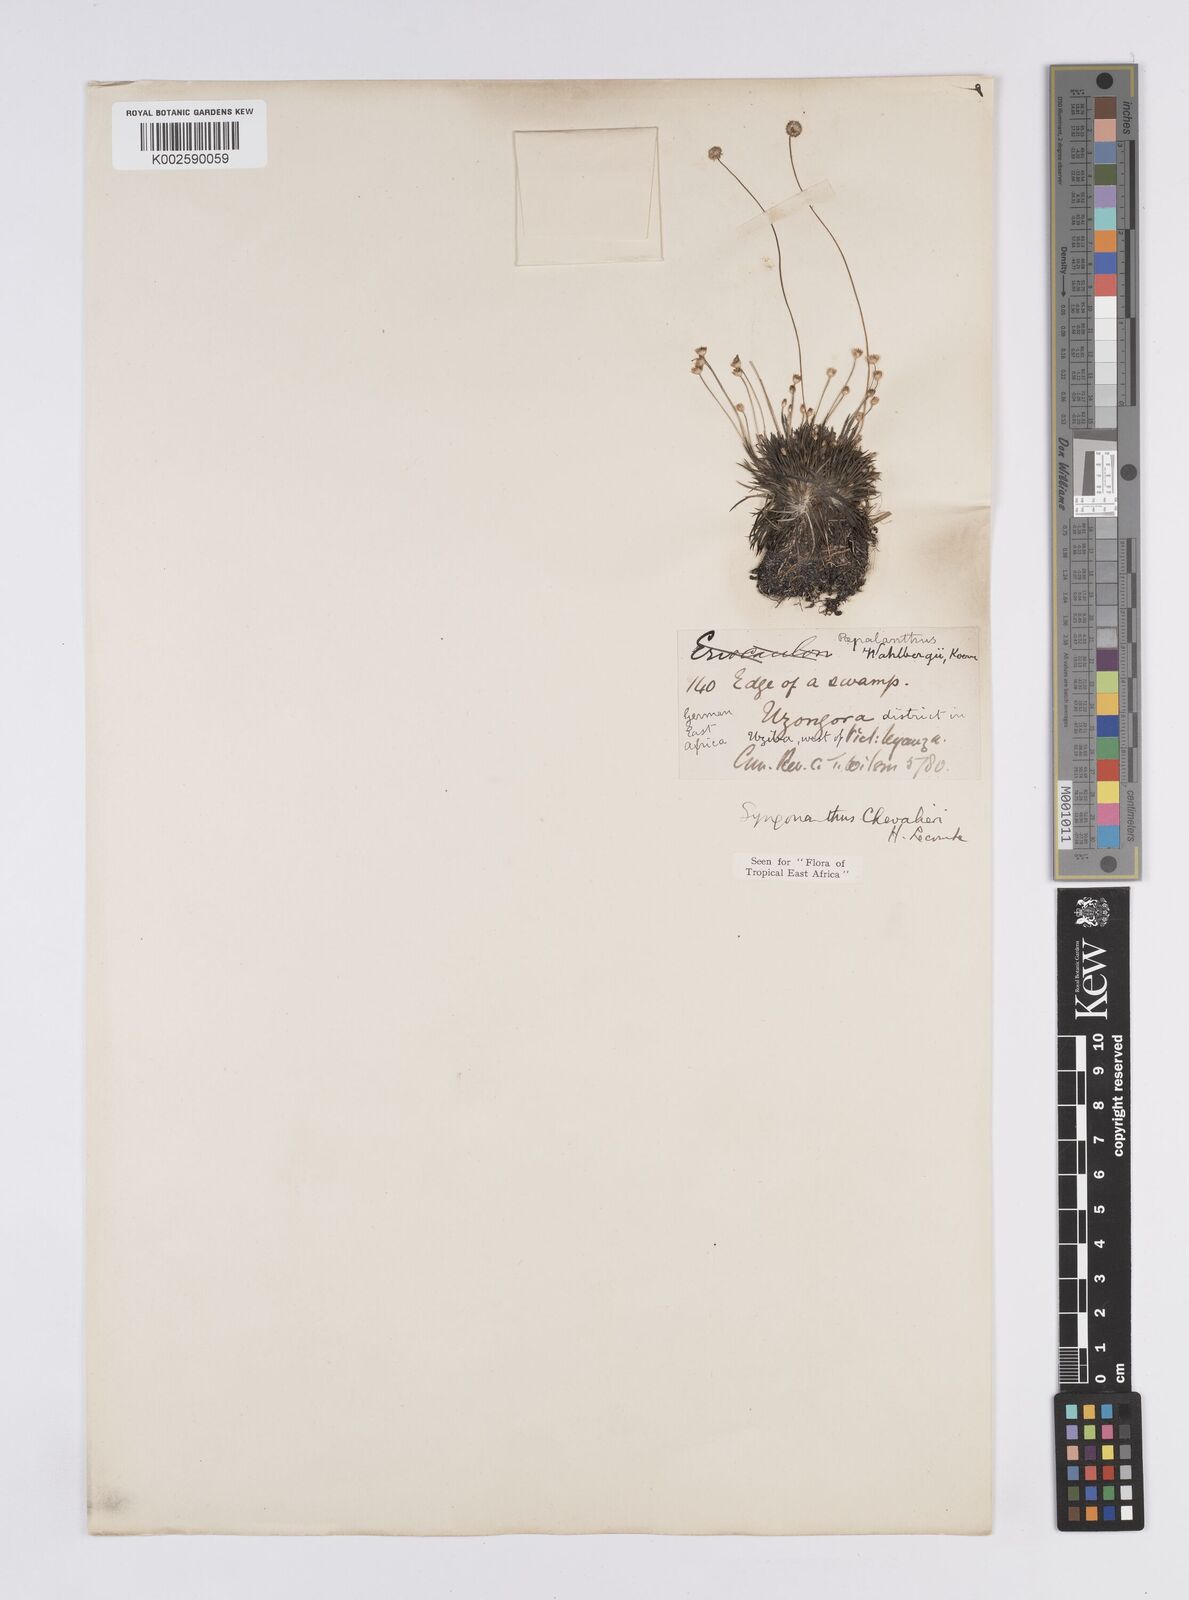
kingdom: Plantae
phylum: Tracheophyta
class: Liliopsida
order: Poales
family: Eriocaulaceae
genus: Syngonanthus
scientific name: Syngonanthus wahlbergii
